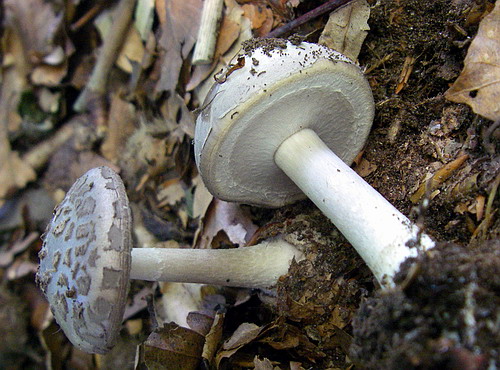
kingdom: Fungi
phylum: Basidiomycota
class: Agaricomycetes
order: Agaricales
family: Amanitaceae
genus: Amanita
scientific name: Amanita porphyria
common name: porfyr-fluesvamp
